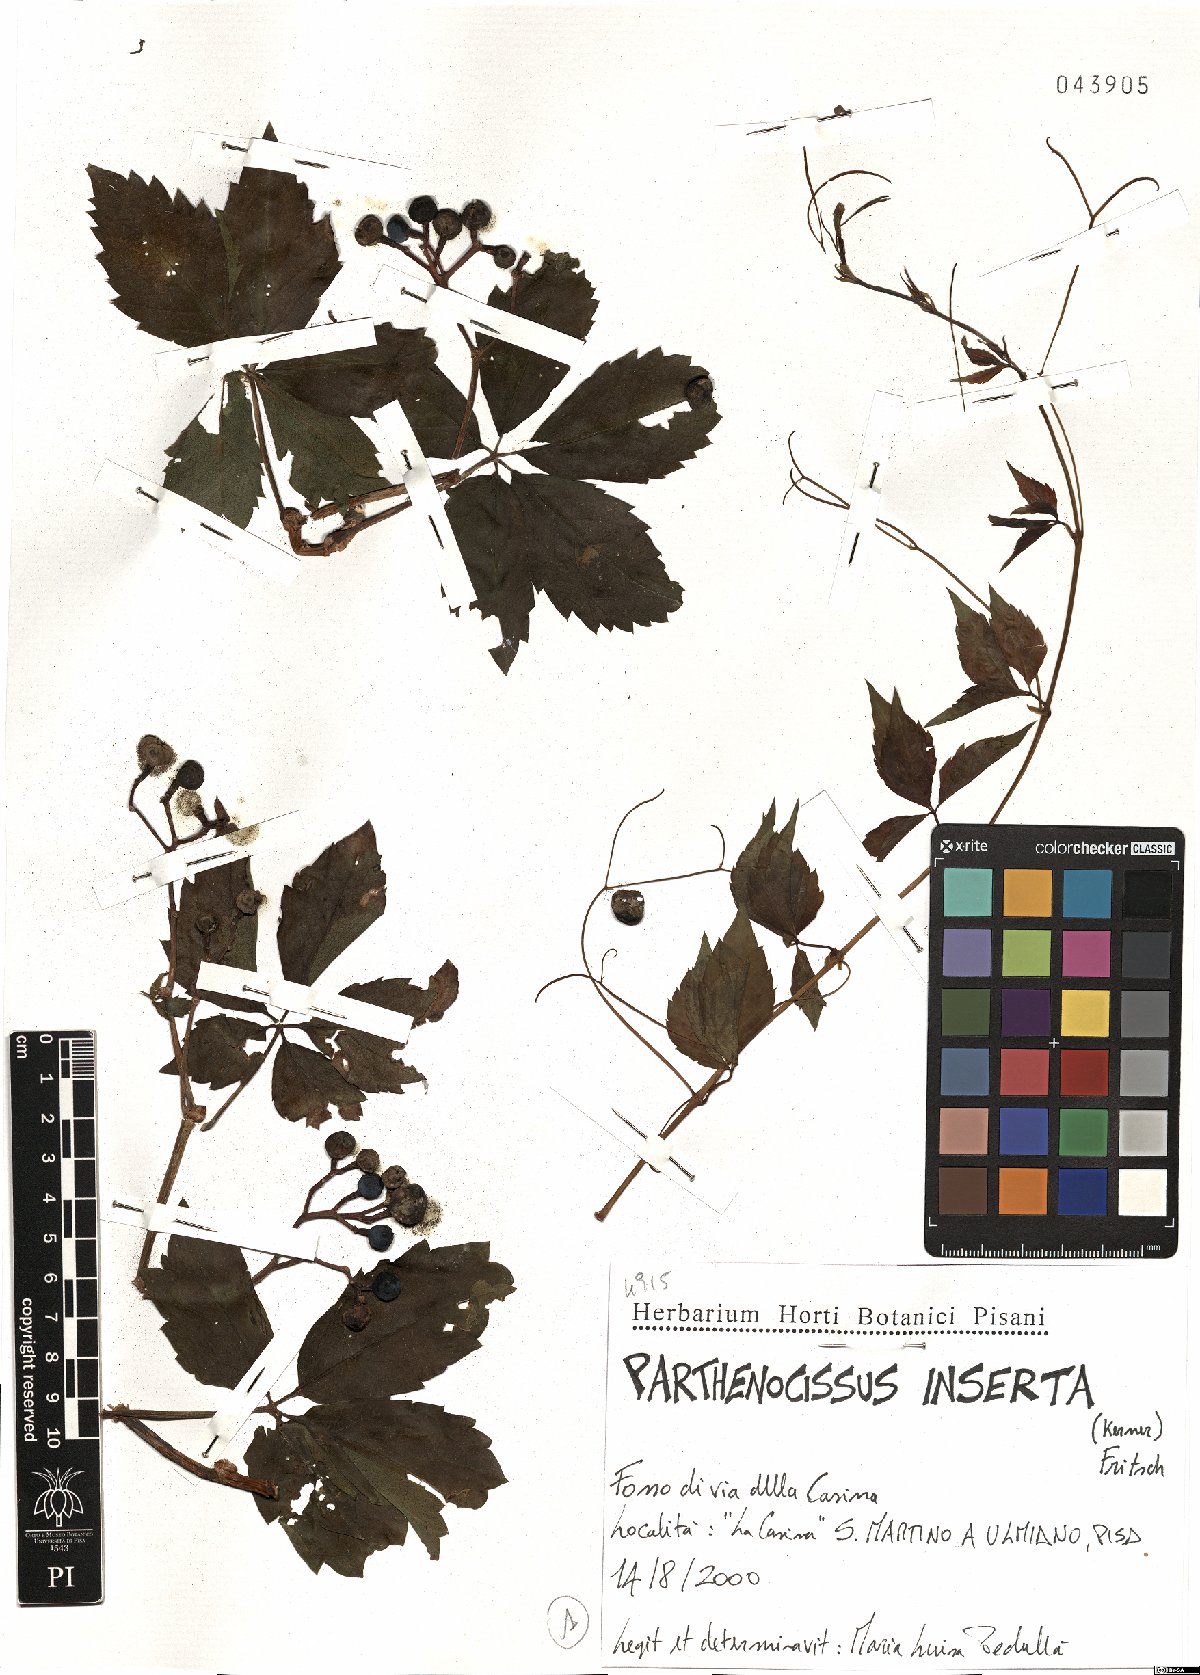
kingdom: Plantae
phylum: Tracheophyta
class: Magnoliopsida
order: Vitales
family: Vitaceae
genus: Parthenocissus
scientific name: Parthenocissus inserta
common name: False virginia-creeper
